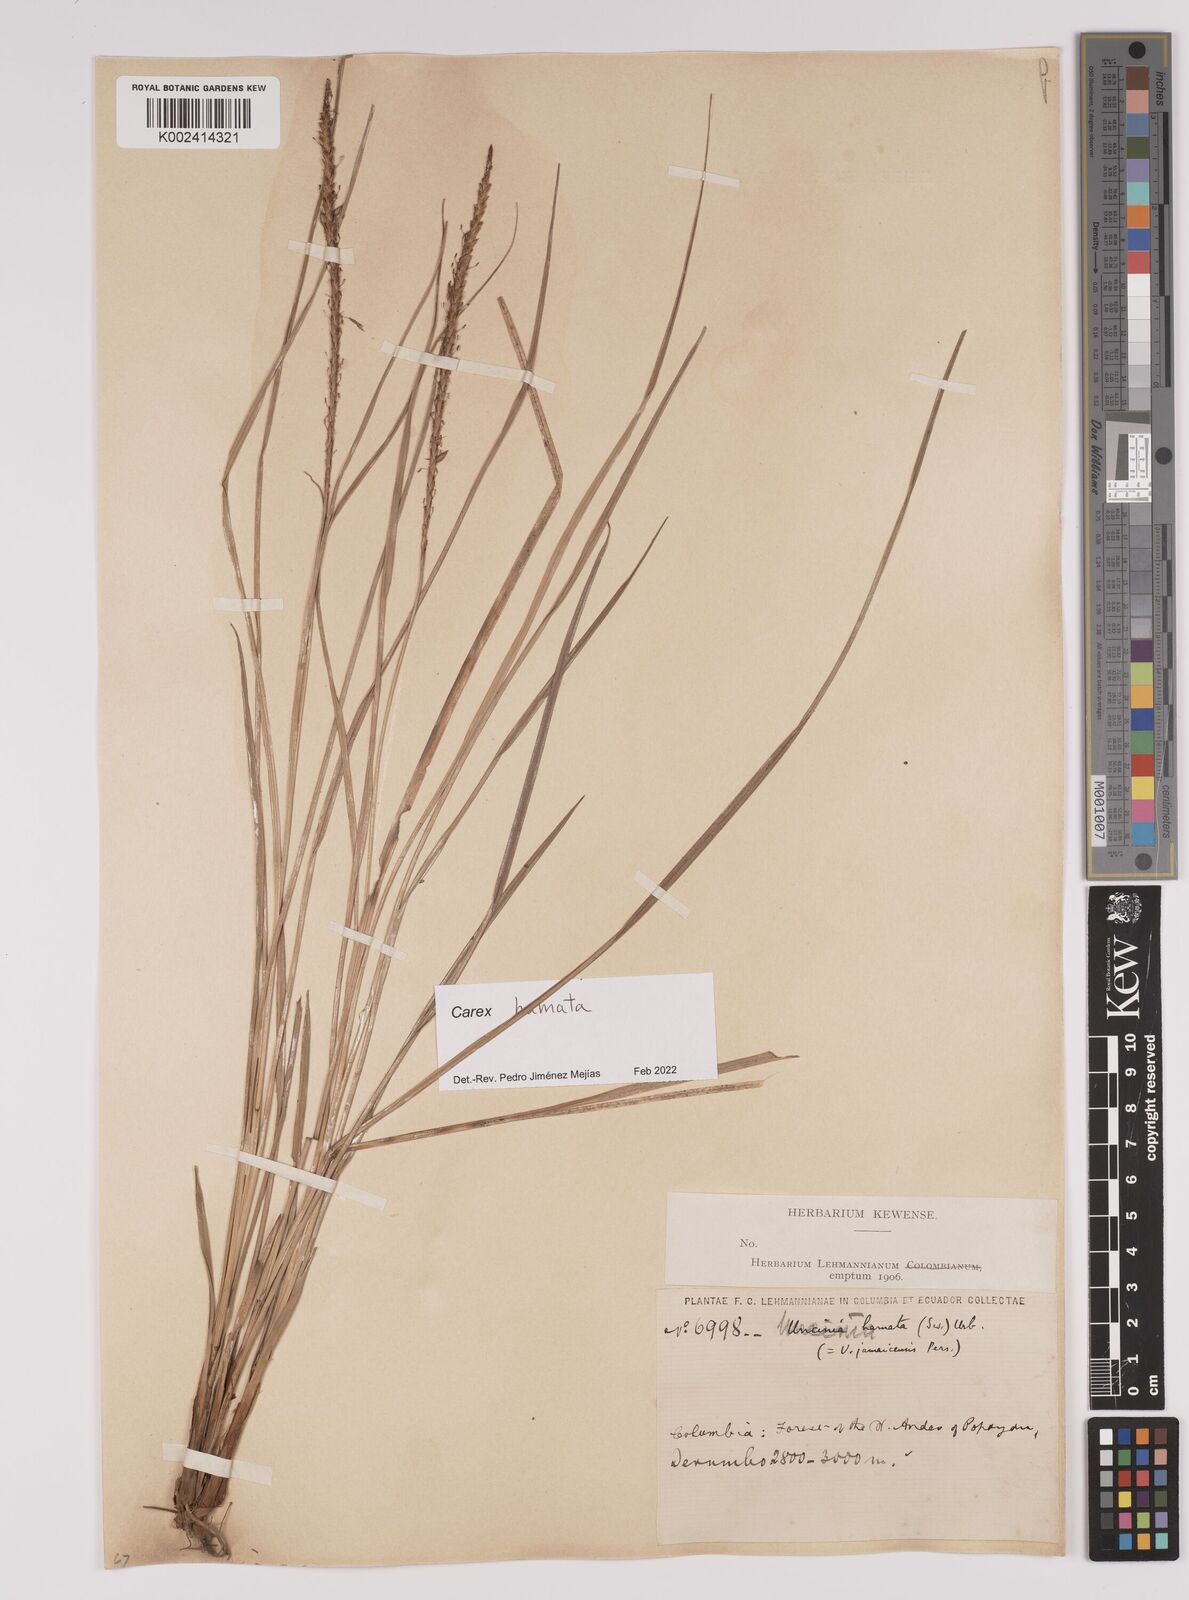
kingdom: Plantae
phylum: Tracheophyta
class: Liliopsida
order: Poales
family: Cyperaceae
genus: Carex
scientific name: Carex hamata
